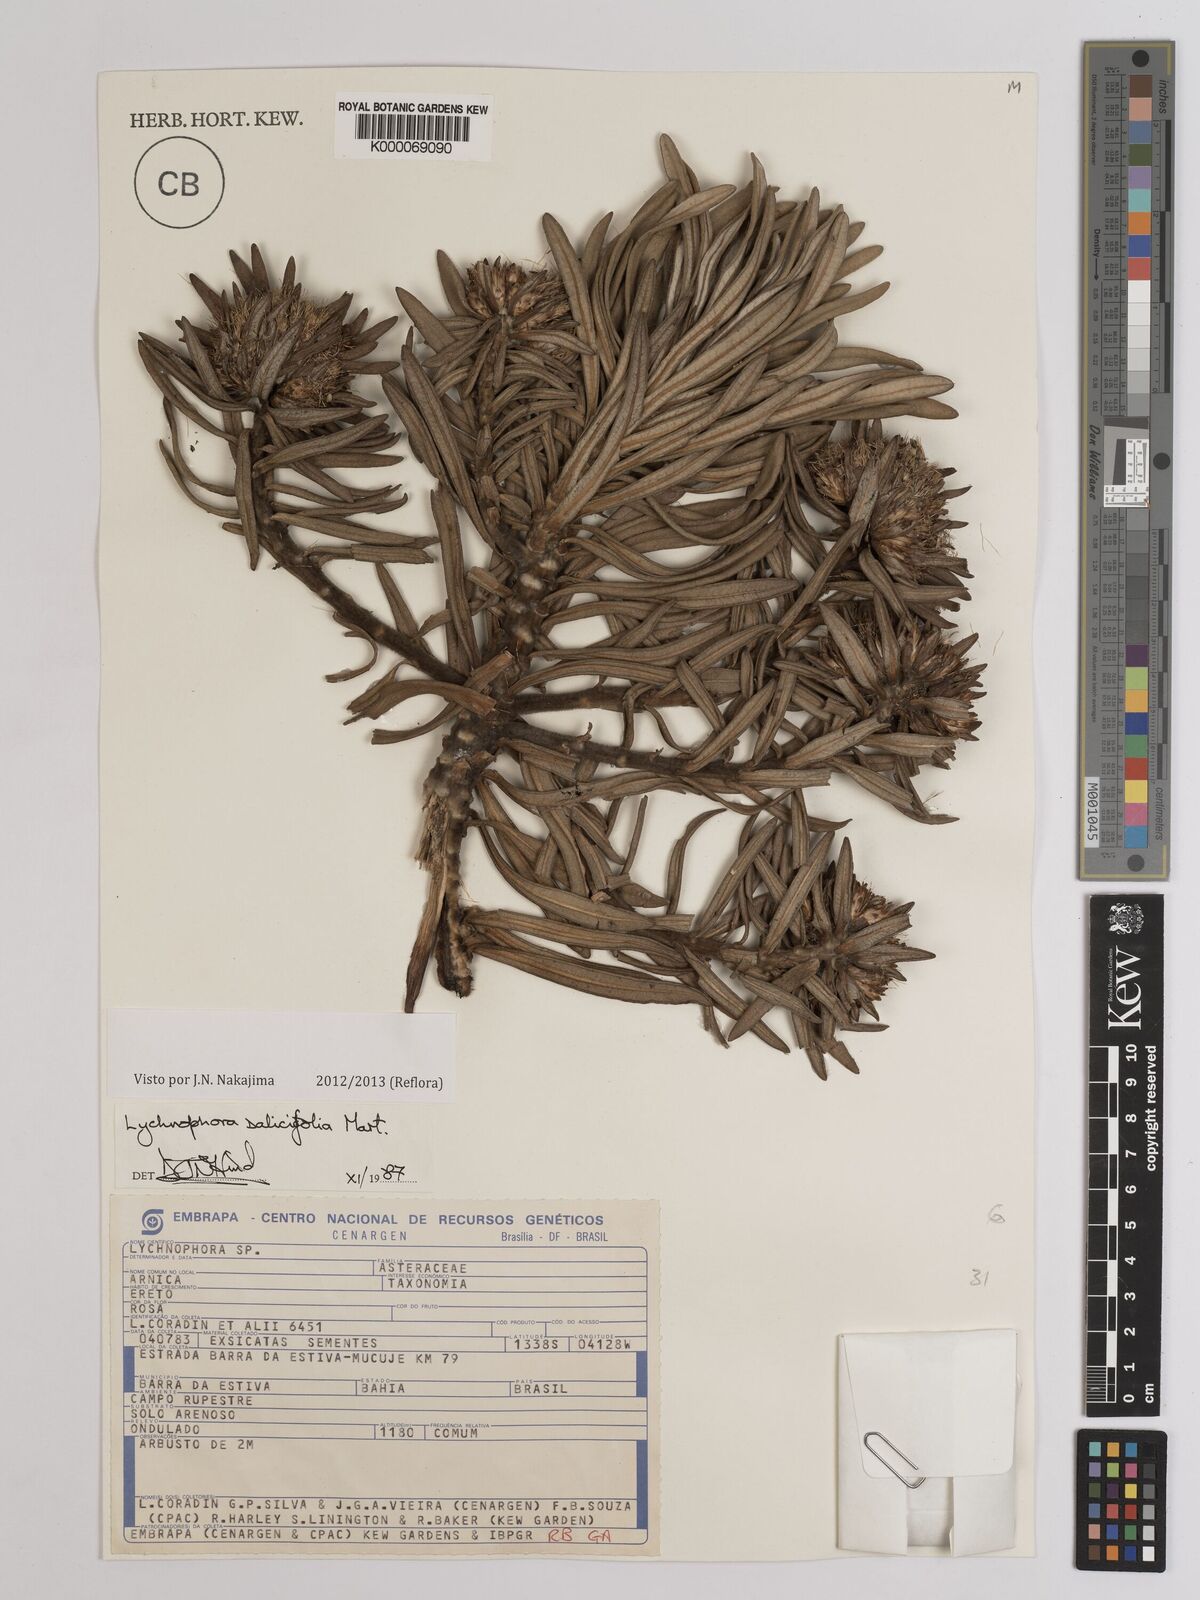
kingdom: Plantae
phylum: Tracheophyta
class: Magnoliopsida
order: Asterales
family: Asteraceae
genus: Lychnophora
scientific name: Lychnophora salicifolia
